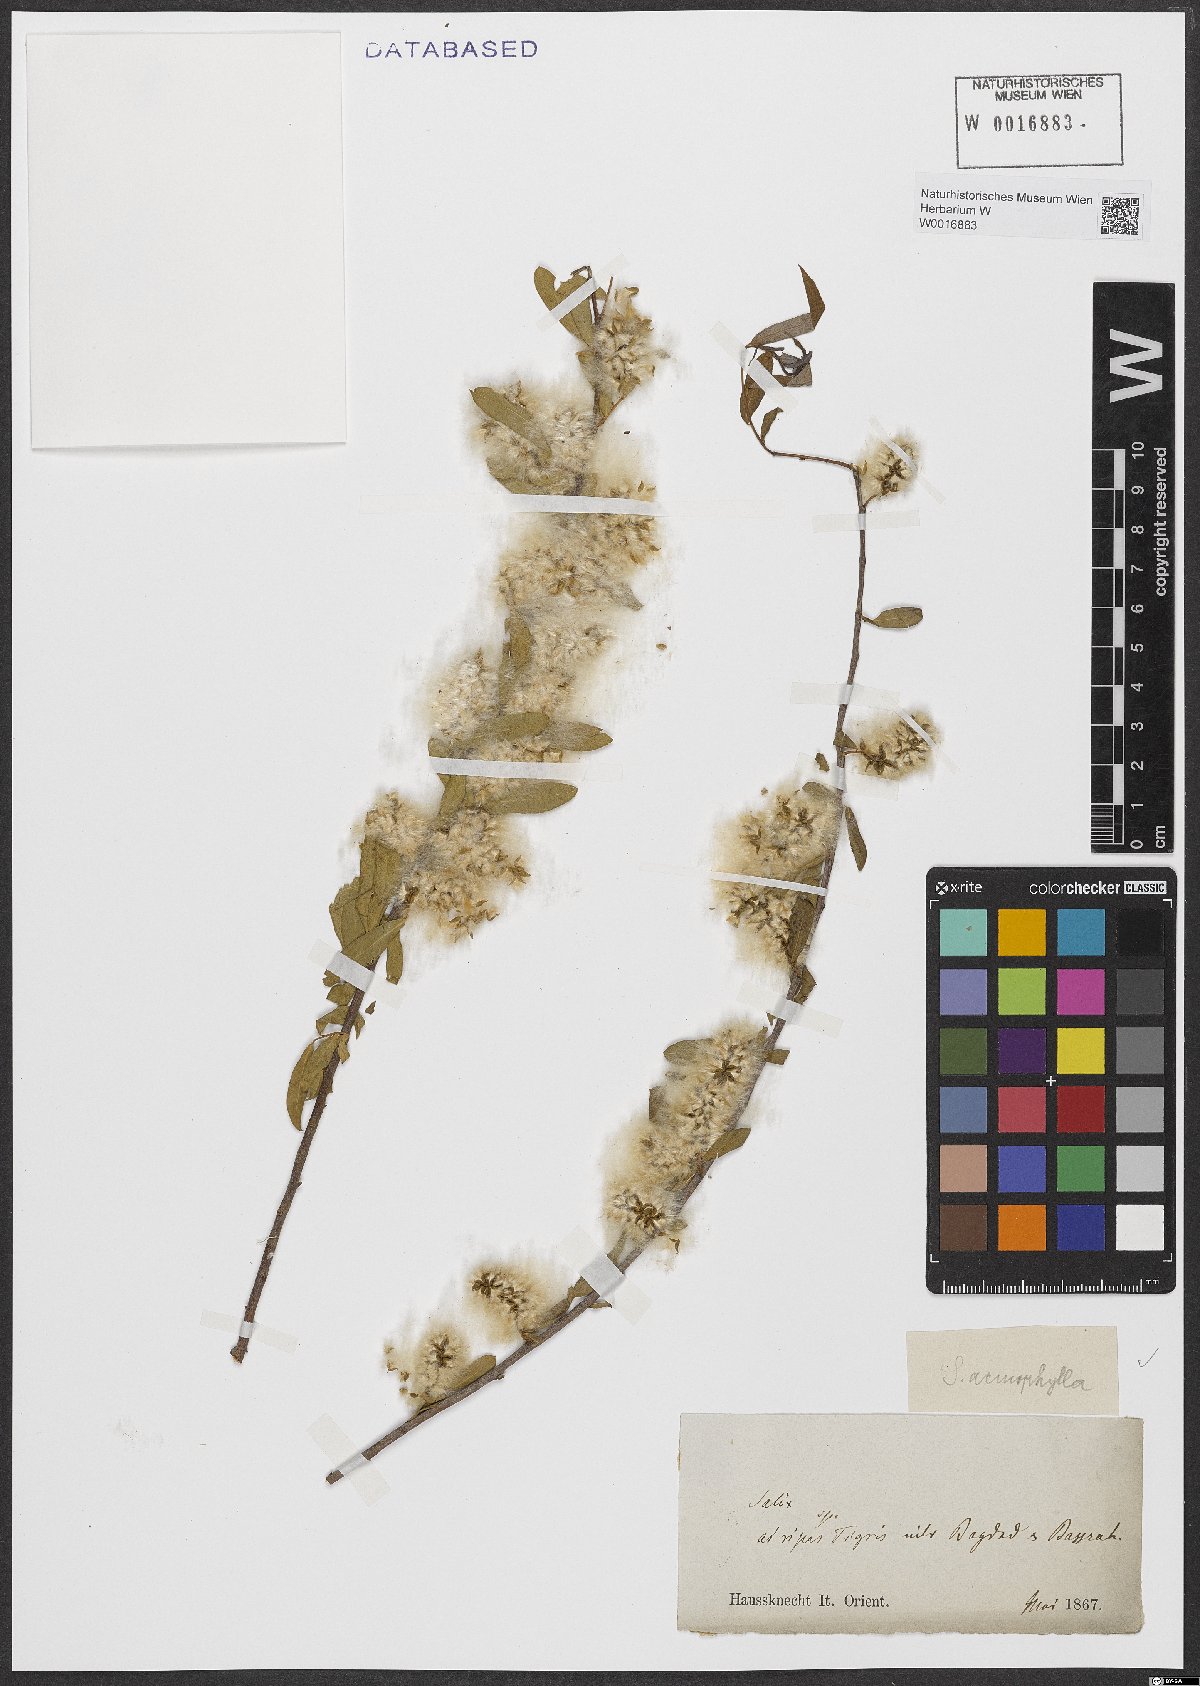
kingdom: Plantae
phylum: Tracheophyta
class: Magnoliopsida
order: Malpighiales
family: Salicaceae
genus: Salix
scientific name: Salix acmophylla
